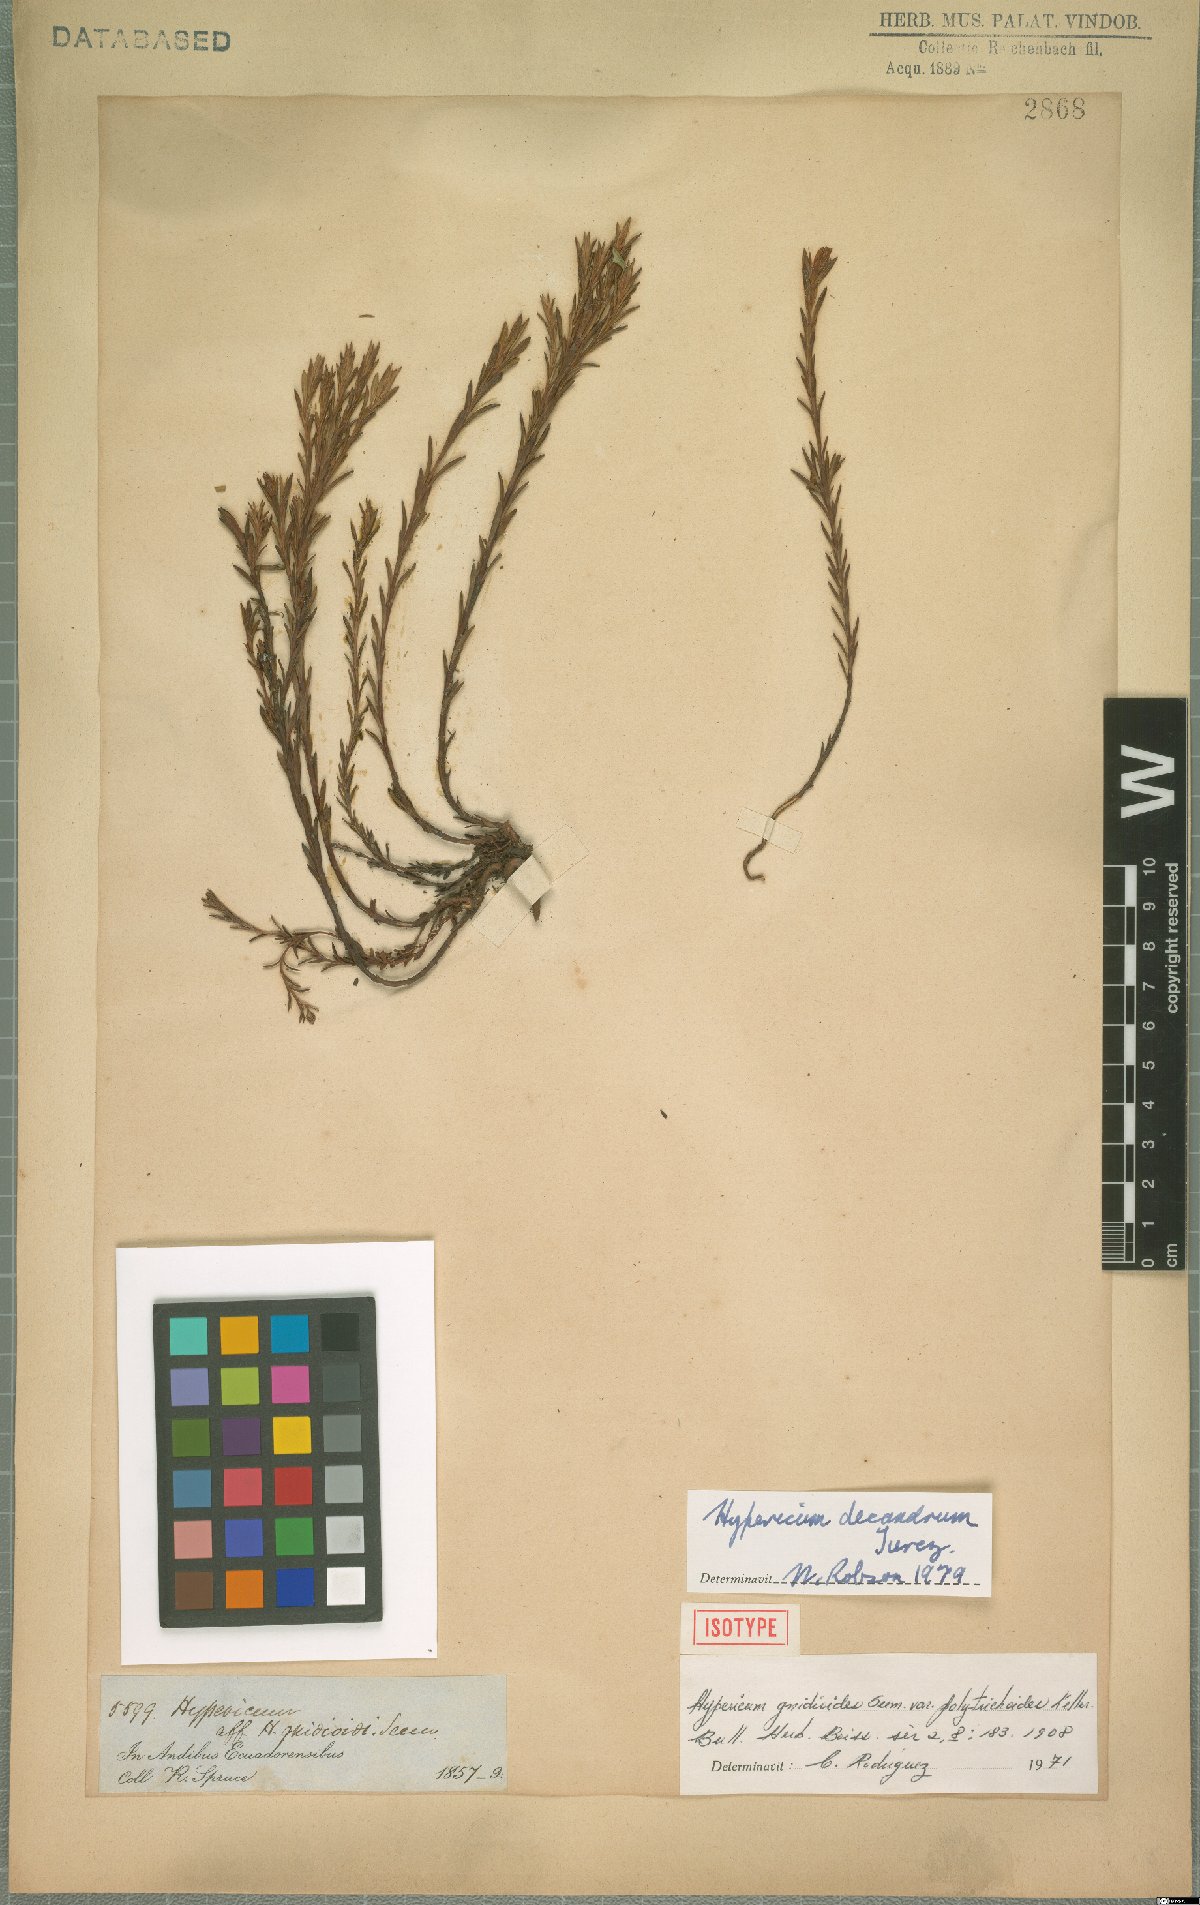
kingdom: Plantae
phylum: Tracheophyta
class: Magnoliopsida
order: Malpighiales
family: Hypericaceae
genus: Hypericum
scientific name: Hypericum decandrum
